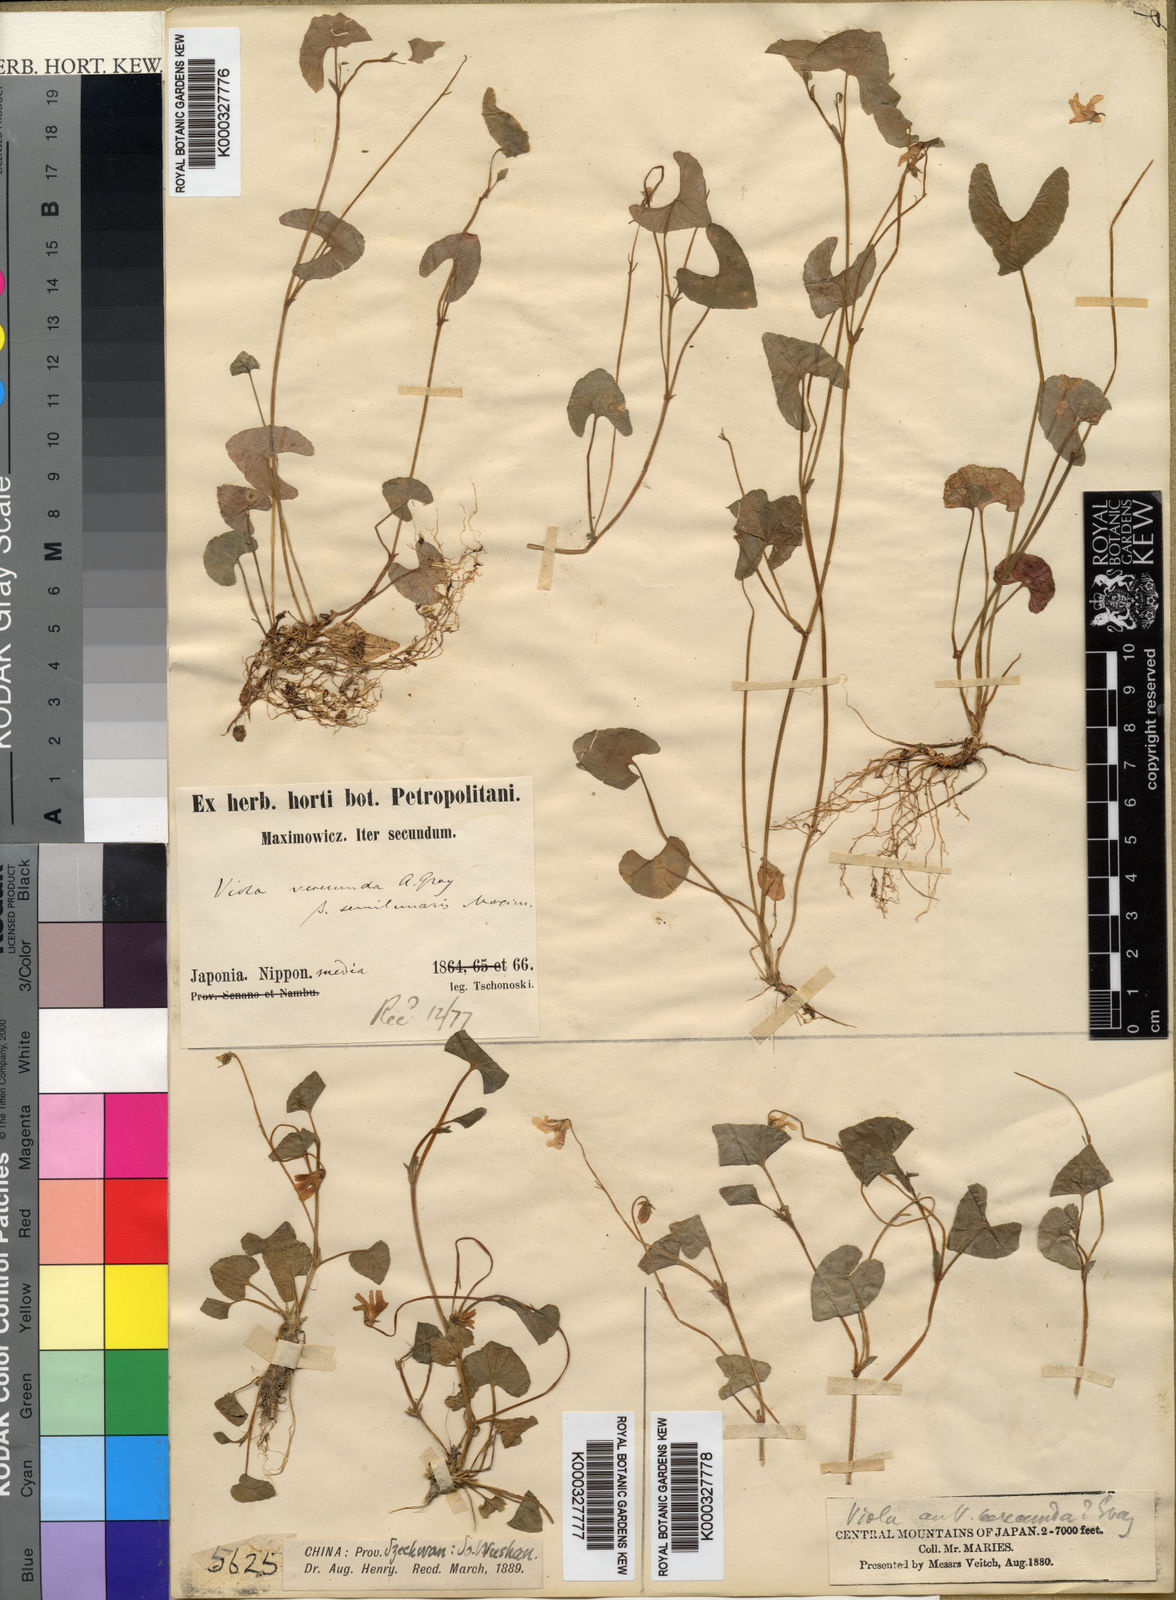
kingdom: Plantae
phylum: Tracheophyta
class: Magnoliopsida
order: Malpighiales
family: Violaceae
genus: Viola
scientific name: Viola hamiltoniana
